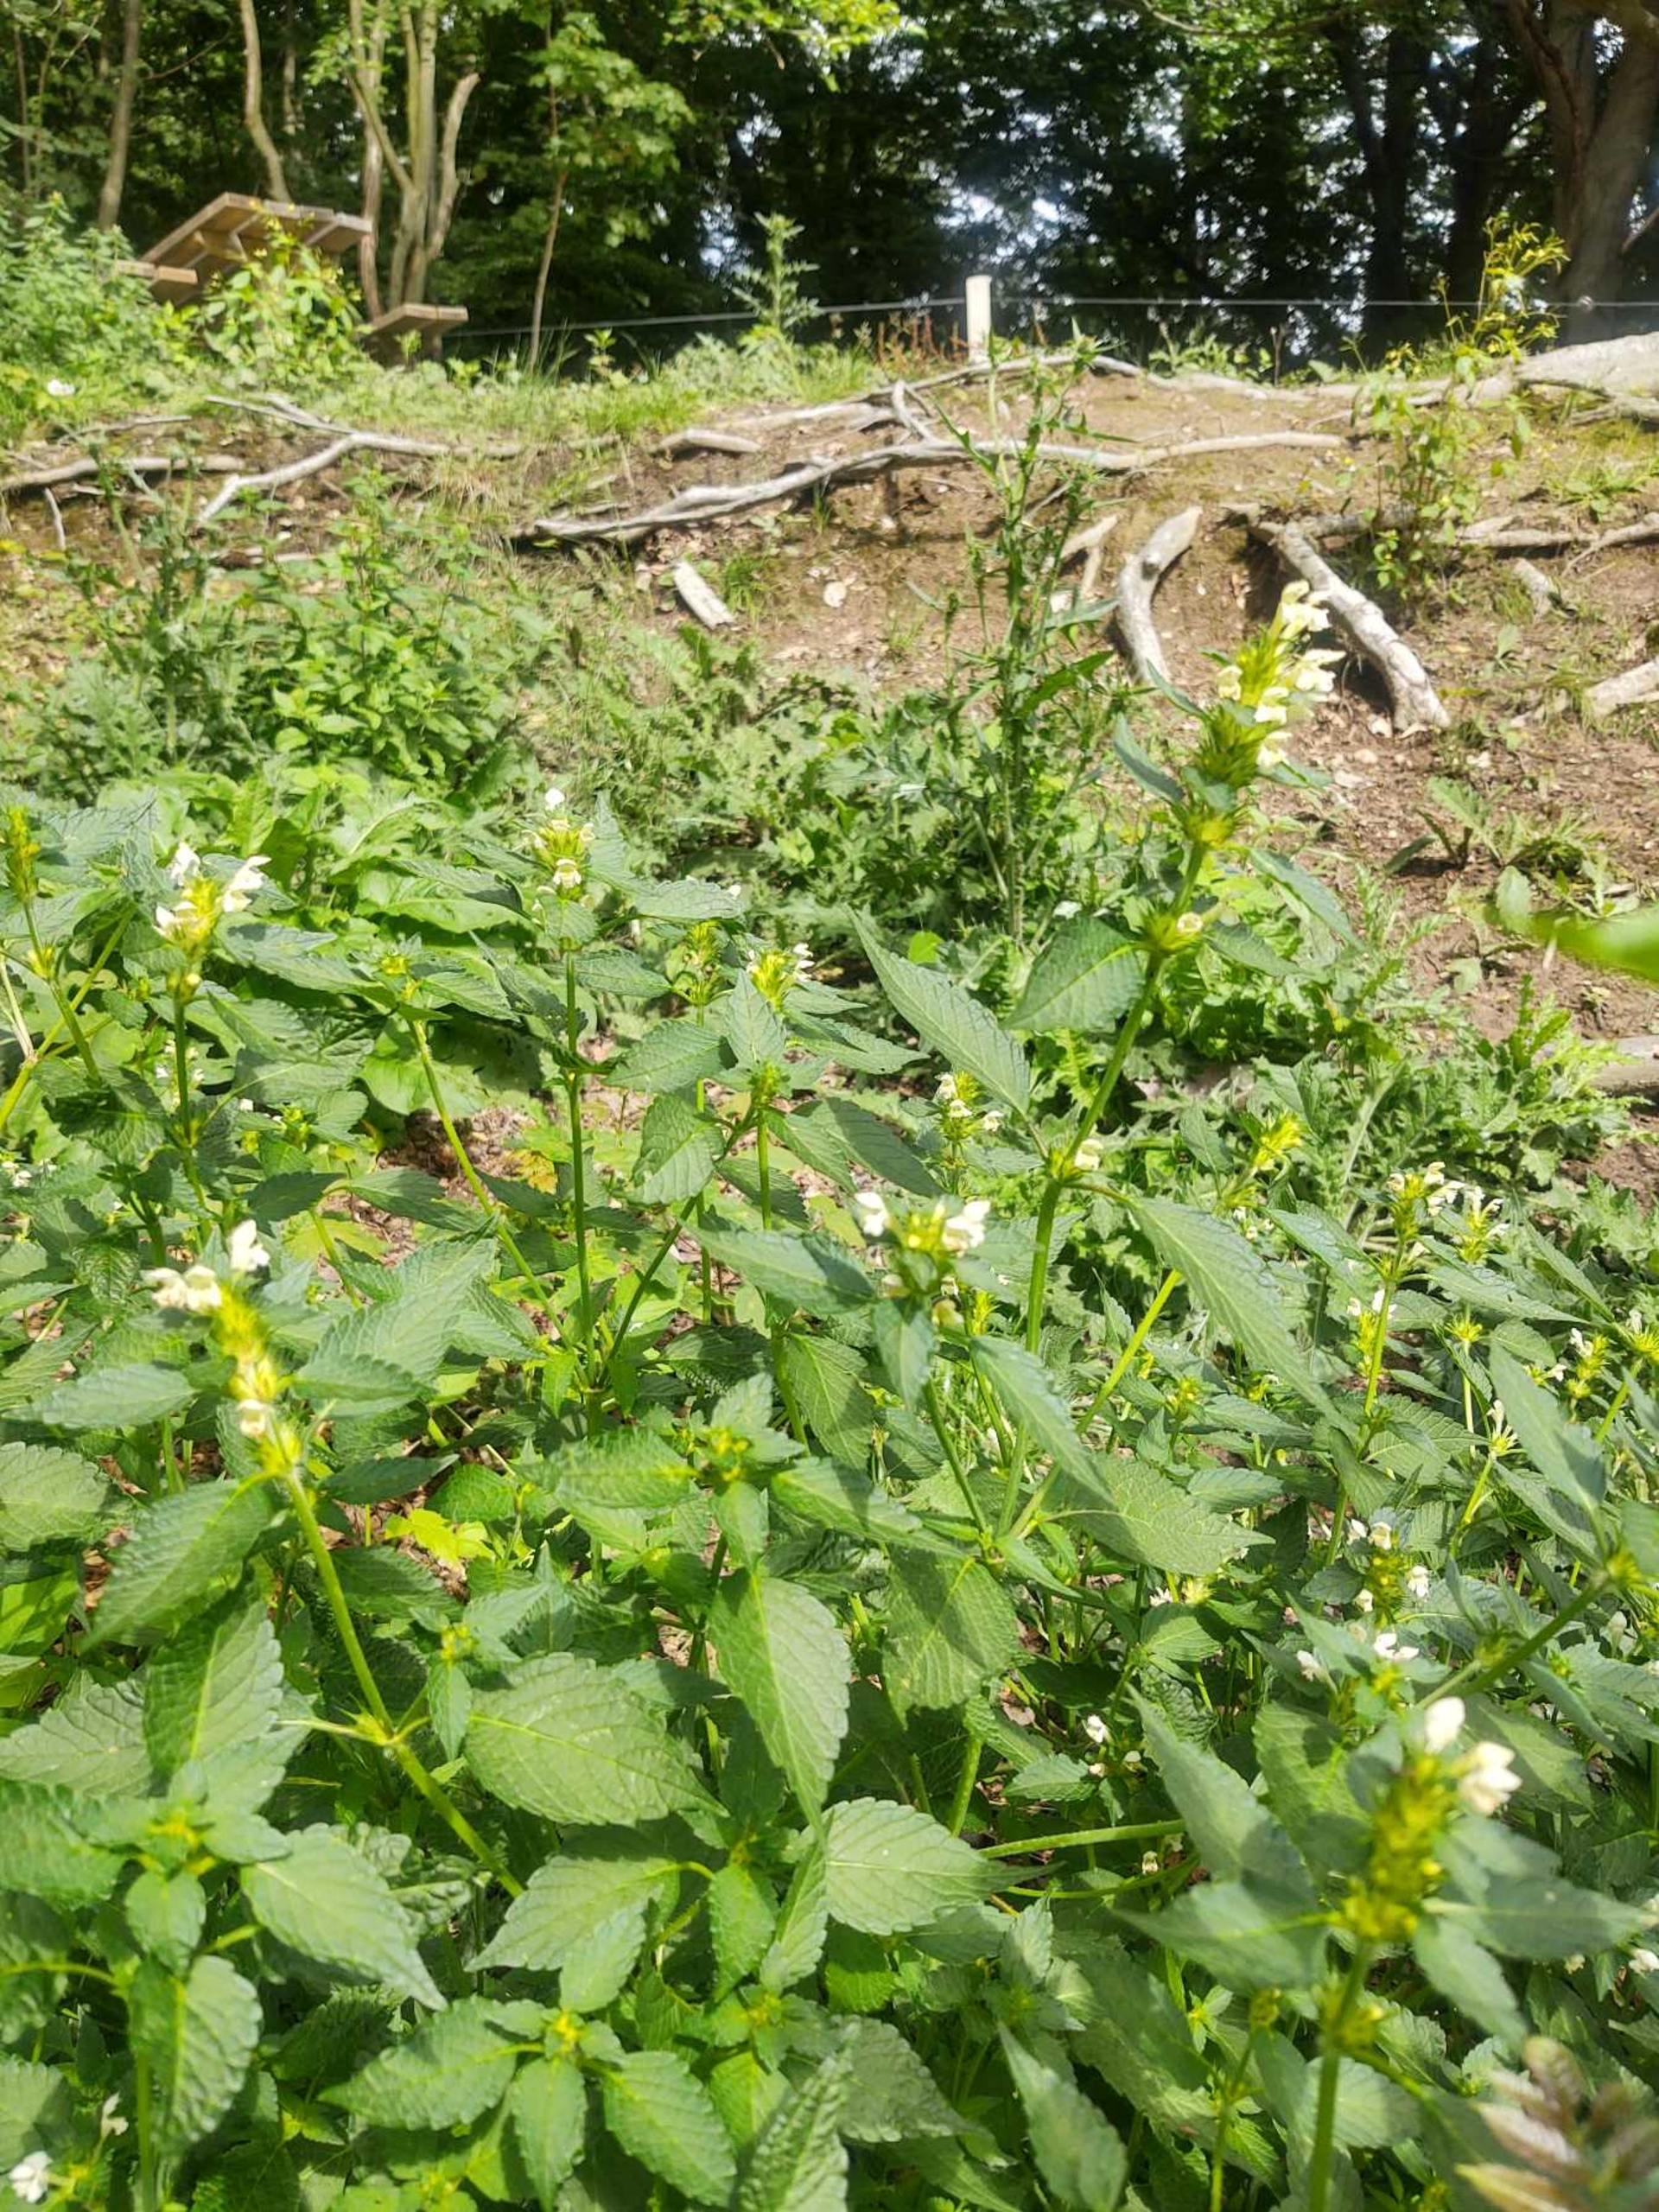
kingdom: Plantae
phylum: Tracheophyta
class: Magnoliopsida
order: Lamiales
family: Lamiaceae
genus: Galeopsis
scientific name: Galeopsis tetrahit
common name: Almindelig hanekro
